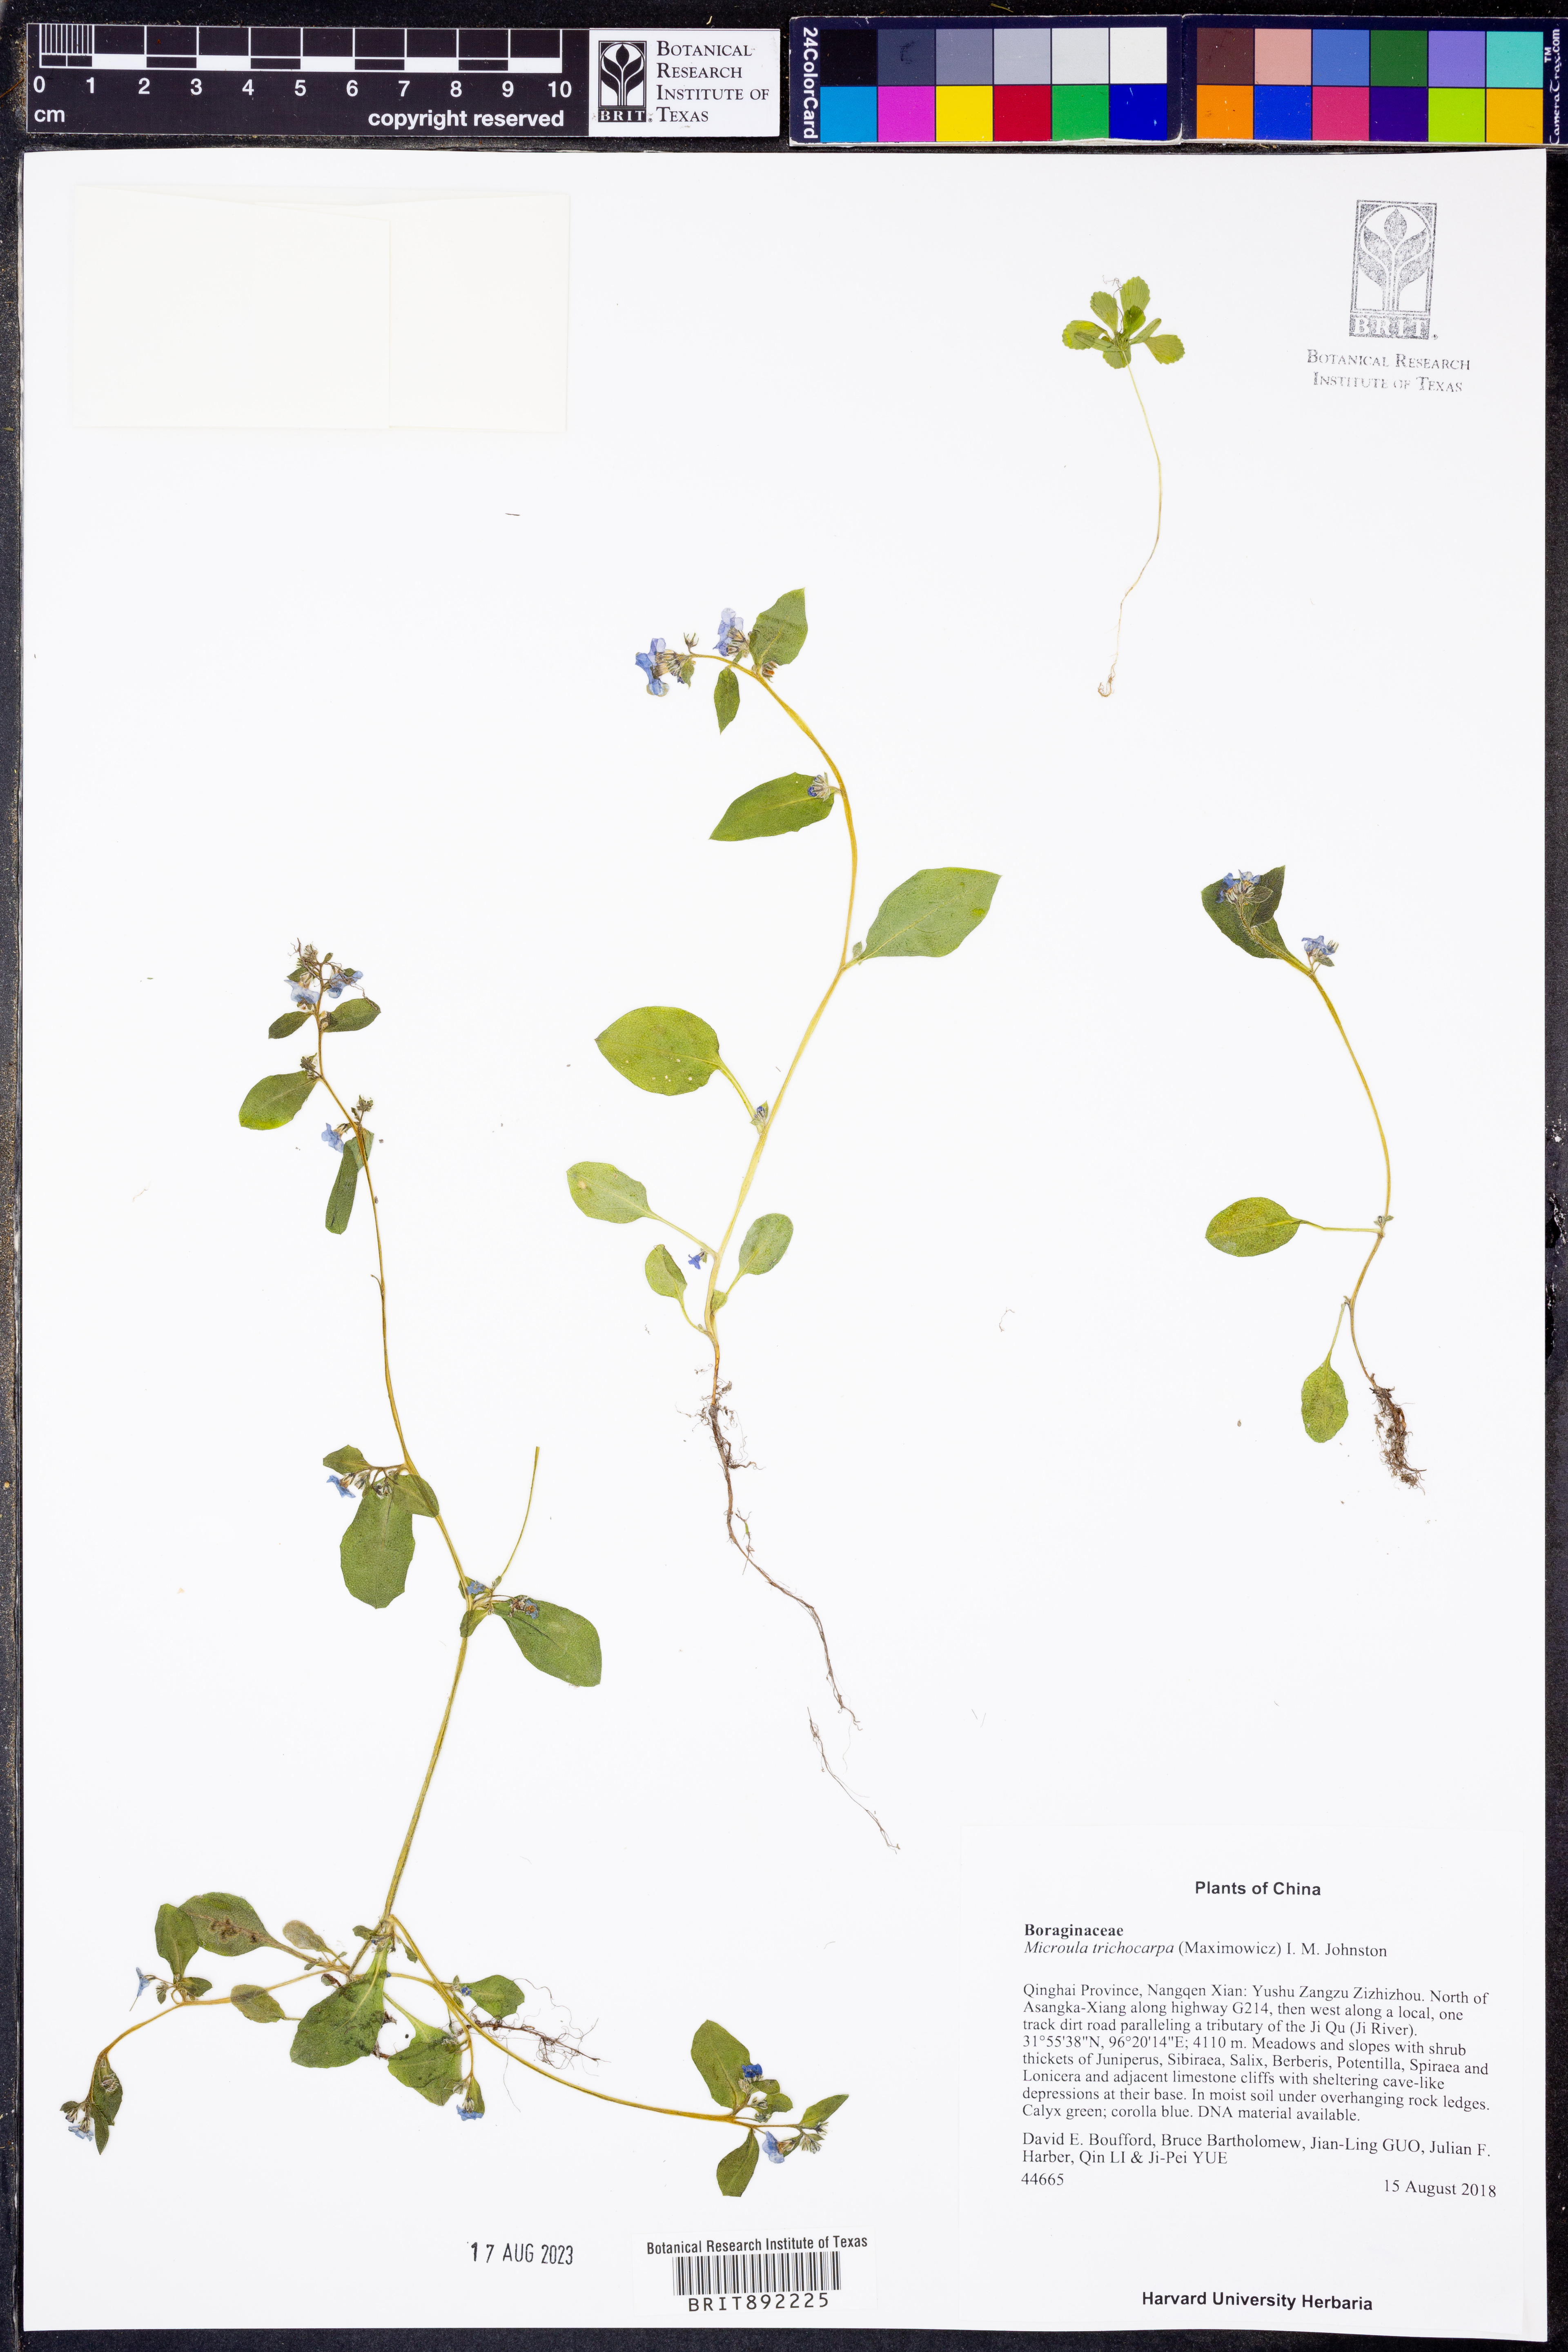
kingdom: Plantae
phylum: Tracheophyta
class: Magnoliopsida
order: Boraginales
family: Boraginaceae
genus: Microula
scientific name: Microula trichocarpa
